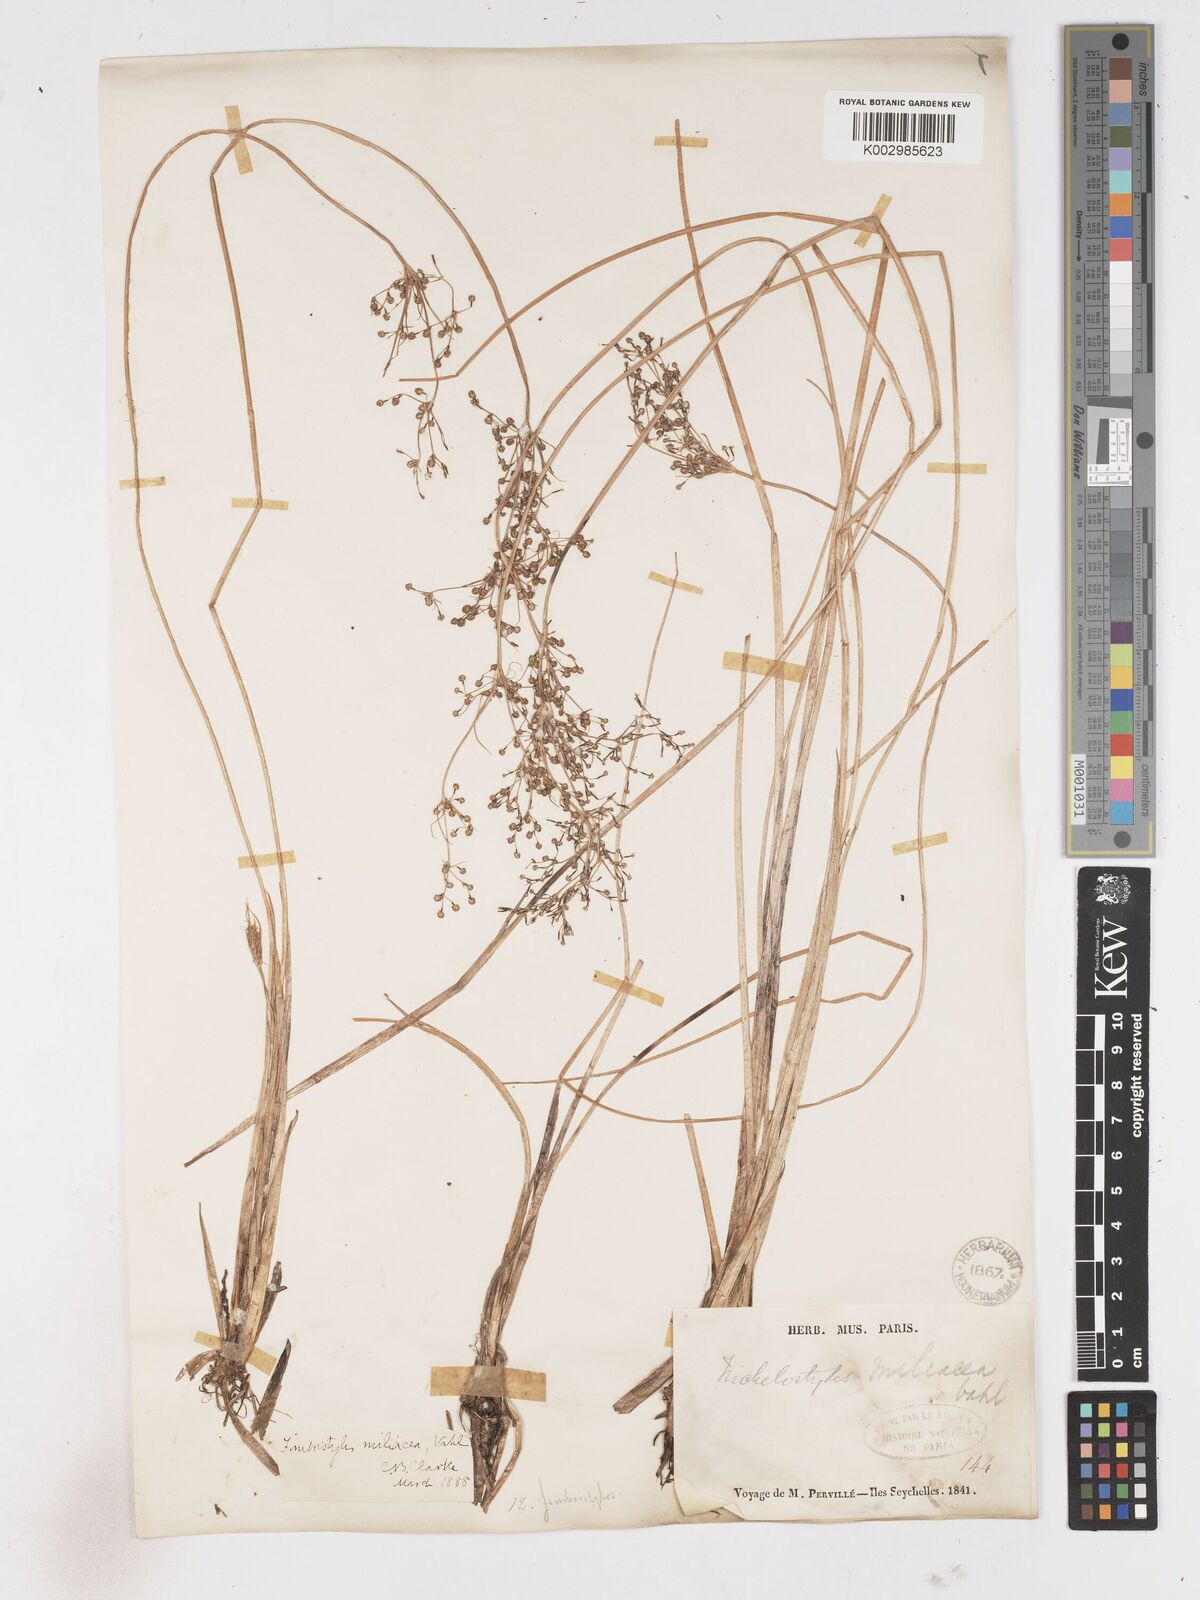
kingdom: Plantae
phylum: Tracheophyta
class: Liliopsida
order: Poales
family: Cyperaceae
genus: Fimbristylis
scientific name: Fimbristylis littoralis
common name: Fimbry
